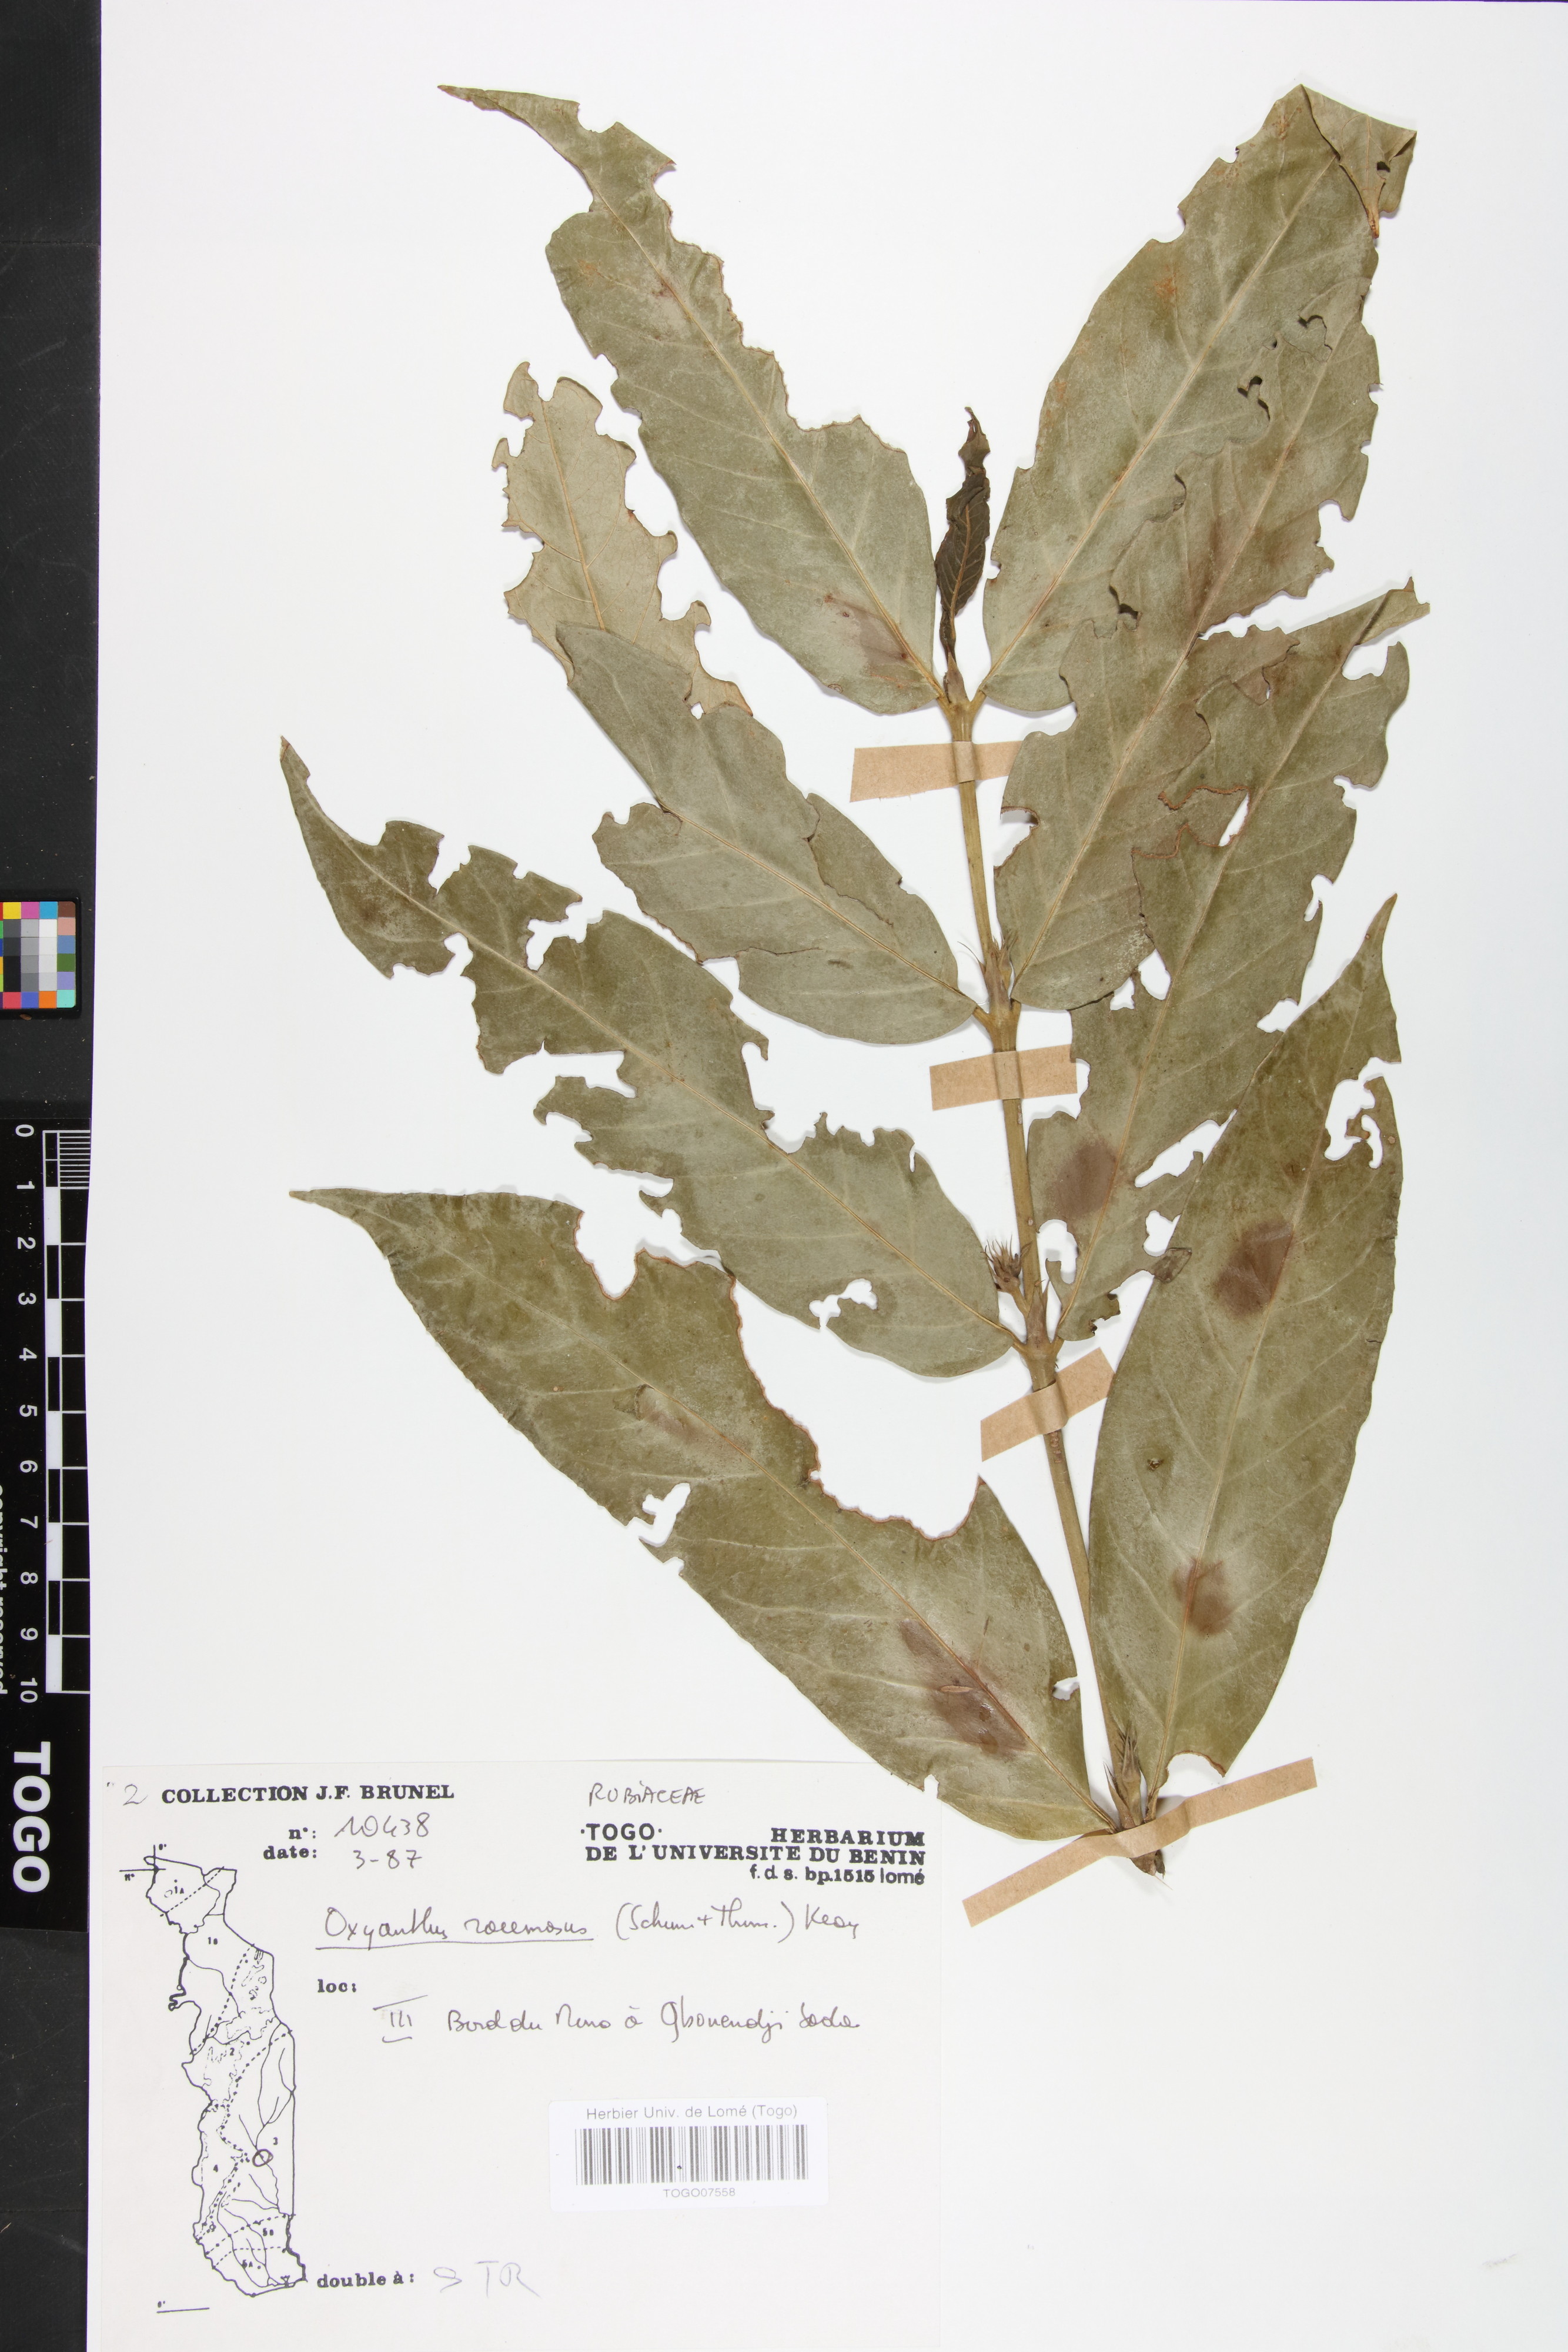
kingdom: Plantae
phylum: Tracheophyta
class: Magnoliopsida
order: Gentianales
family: Rubiaceae
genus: Oxyanthus
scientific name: Oxyanthus racemosus
